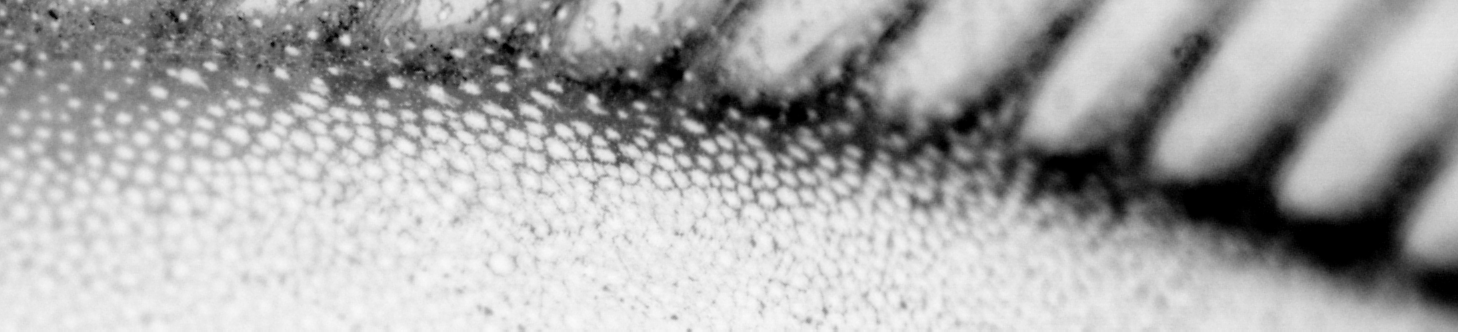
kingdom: Animalia
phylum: Chordata
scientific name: Chordata
